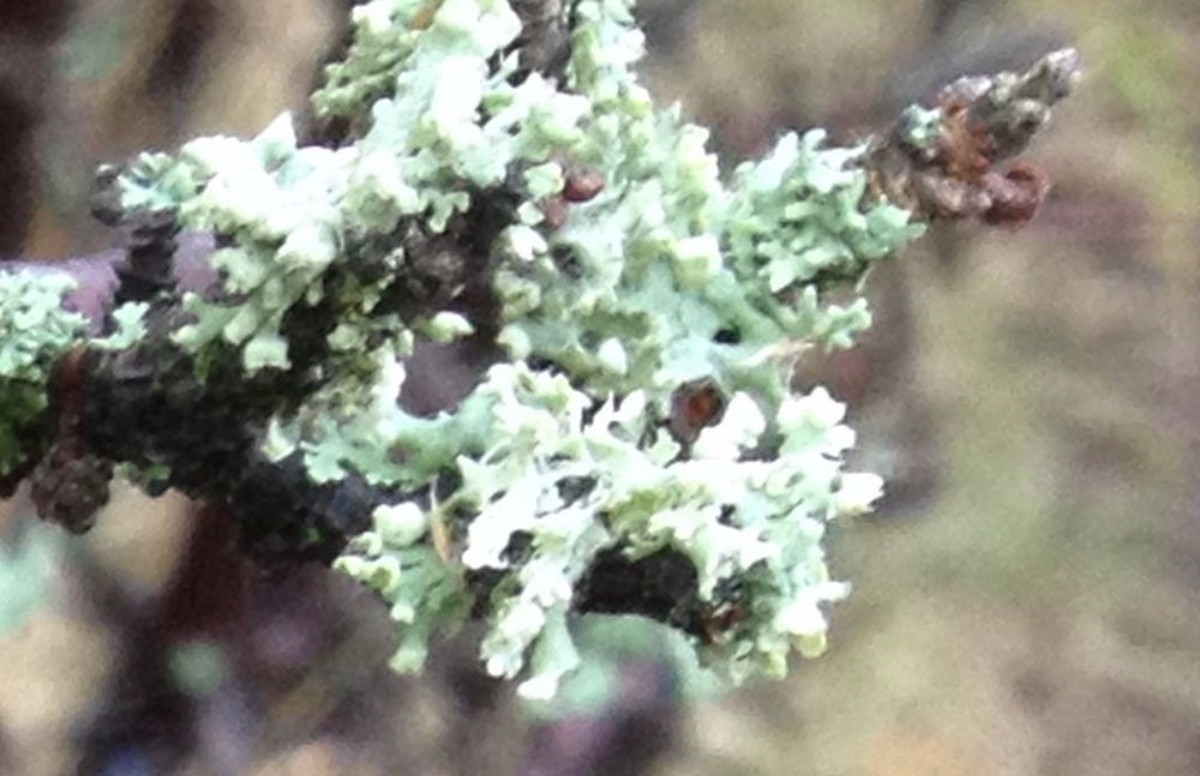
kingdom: Fungi
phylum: Ascomycota
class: Lecanoromycetes
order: Caliciales
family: Physciaceae
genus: Physcia
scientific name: Physcia adscendens
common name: hætte-rosetlav
